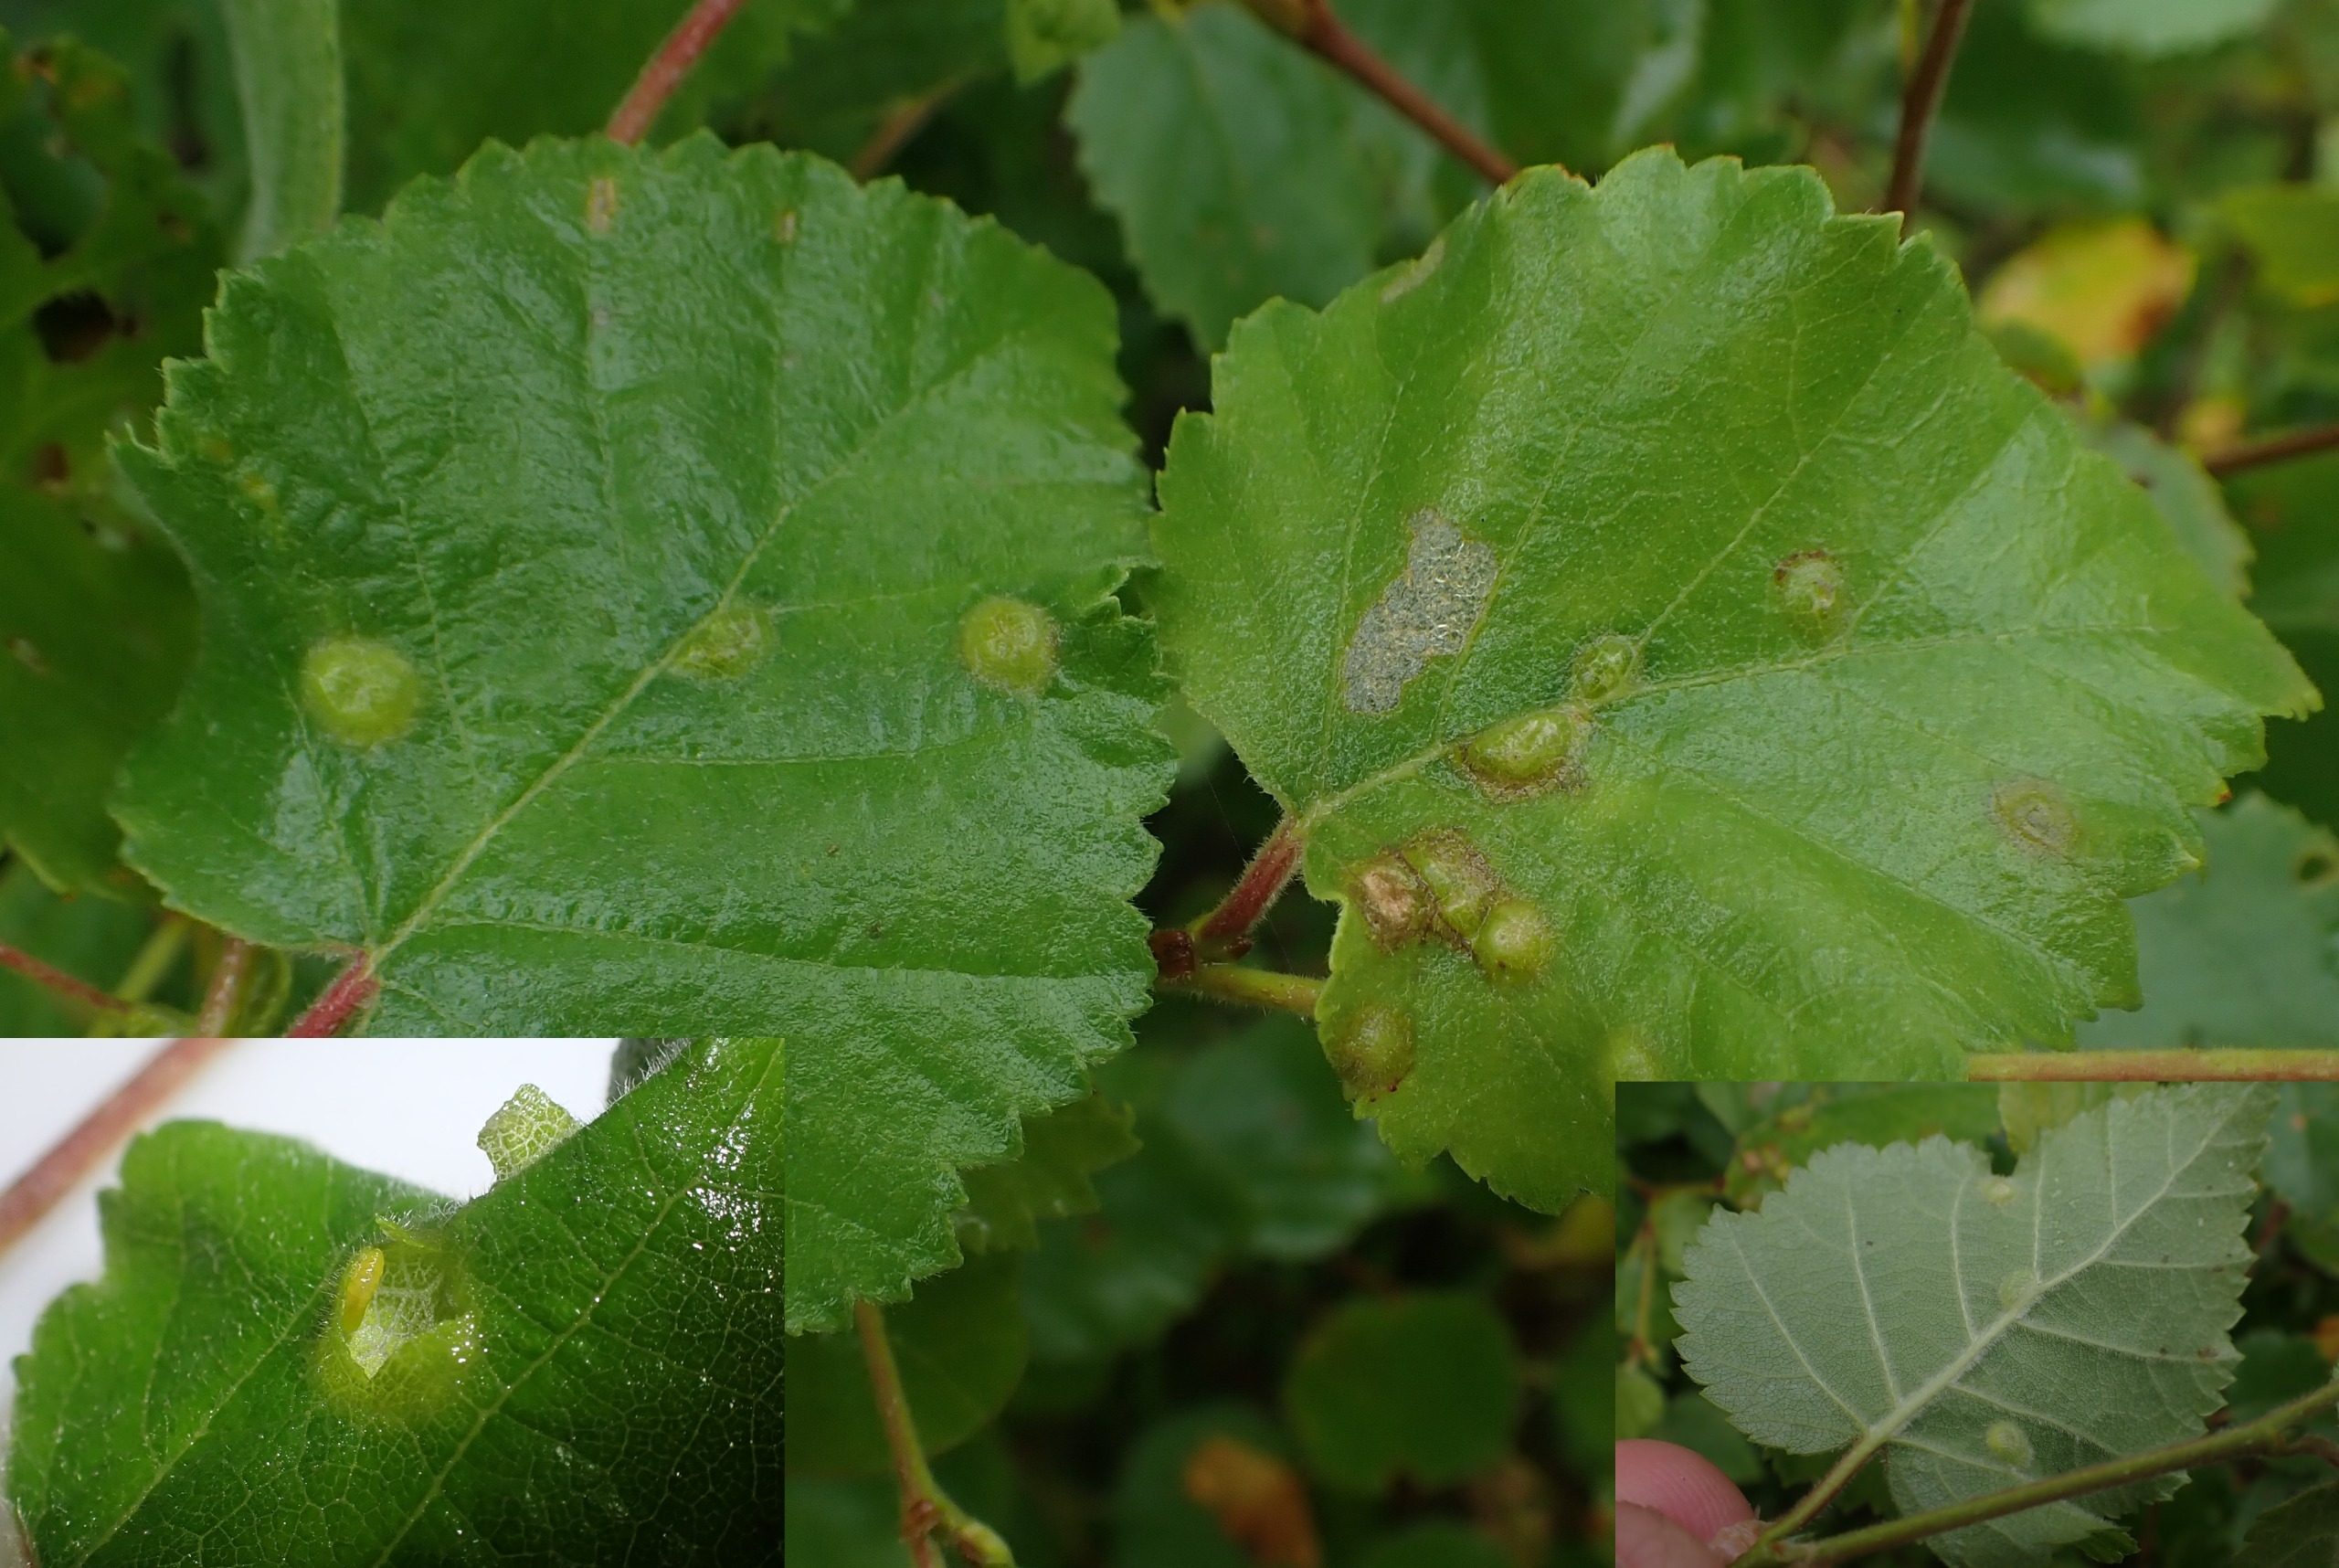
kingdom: Animalia
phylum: Arthropoda
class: Insecta
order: Diptera
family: Cecidomyiidae
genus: Anisostephus
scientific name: Anisostephus betulinus
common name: Birkeblæregalmyg
